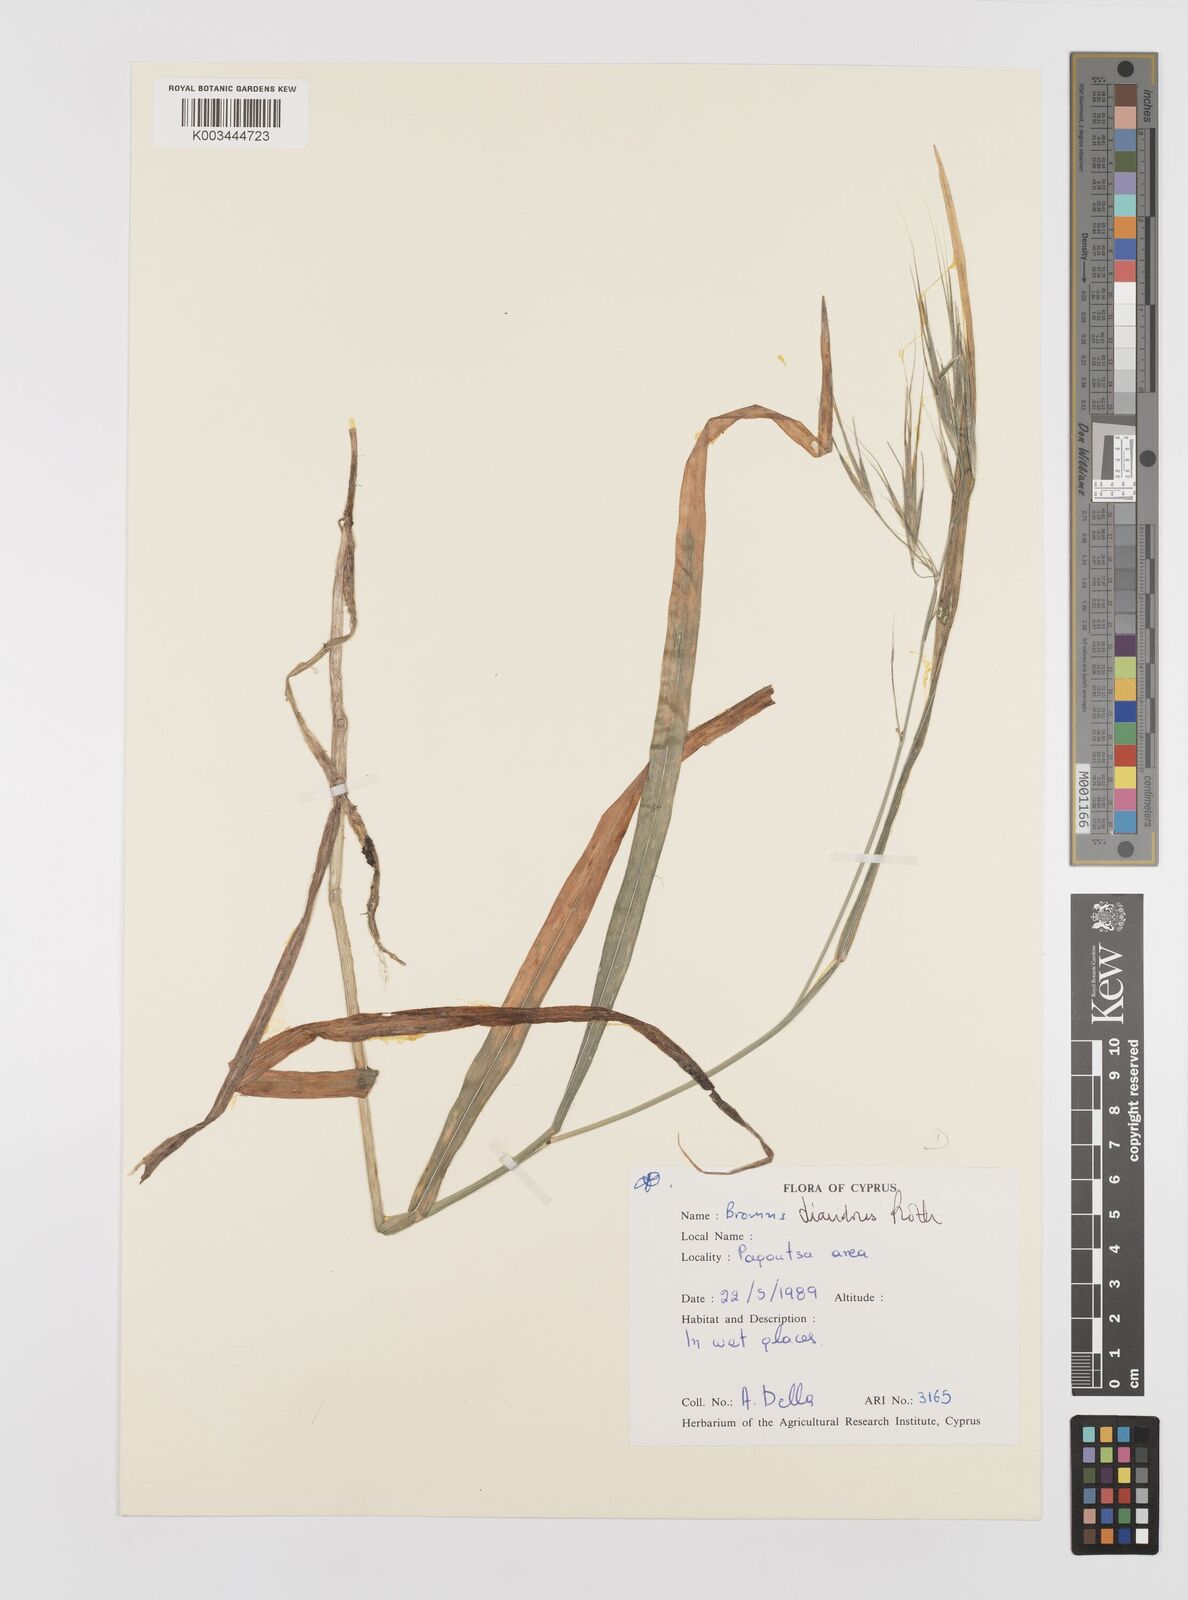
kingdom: Plantae
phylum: Tracheophyta
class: Liliopsida
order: Poales
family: Poaceae
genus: Bromus
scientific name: Bromus diandrus
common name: Ripgut brome
